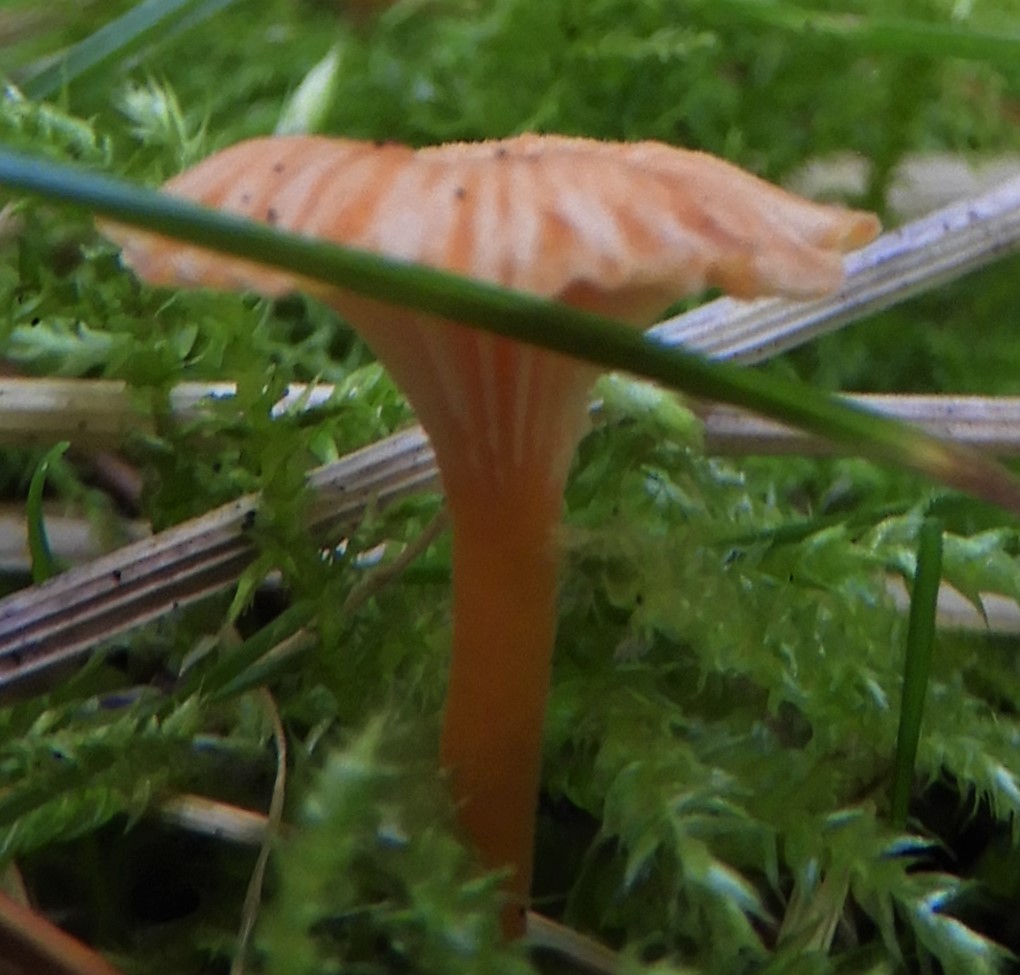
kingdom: Fungi
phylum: Basidiomycota
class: Agaricomycetes
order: Hymenochaetales
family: Rickenellaceae
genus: Rickenella
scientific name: Rickenella fibula
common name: orange mosnavlehat
